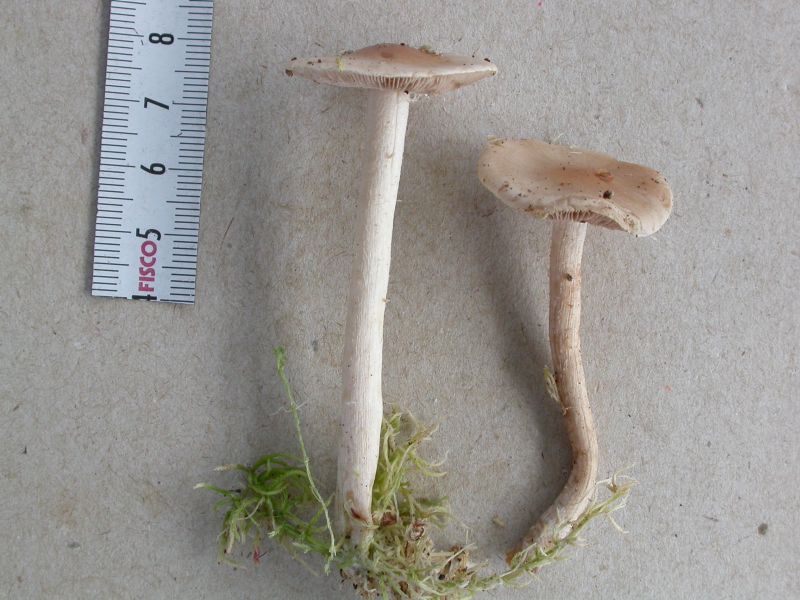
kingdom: Fungi
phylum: Basidiomycota
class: Agaricomycetes
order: Agaricales
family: Hymenogastraceae
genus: Hebeloma
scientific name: Hebeloma leucosarx
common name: højstokket tåreblad
